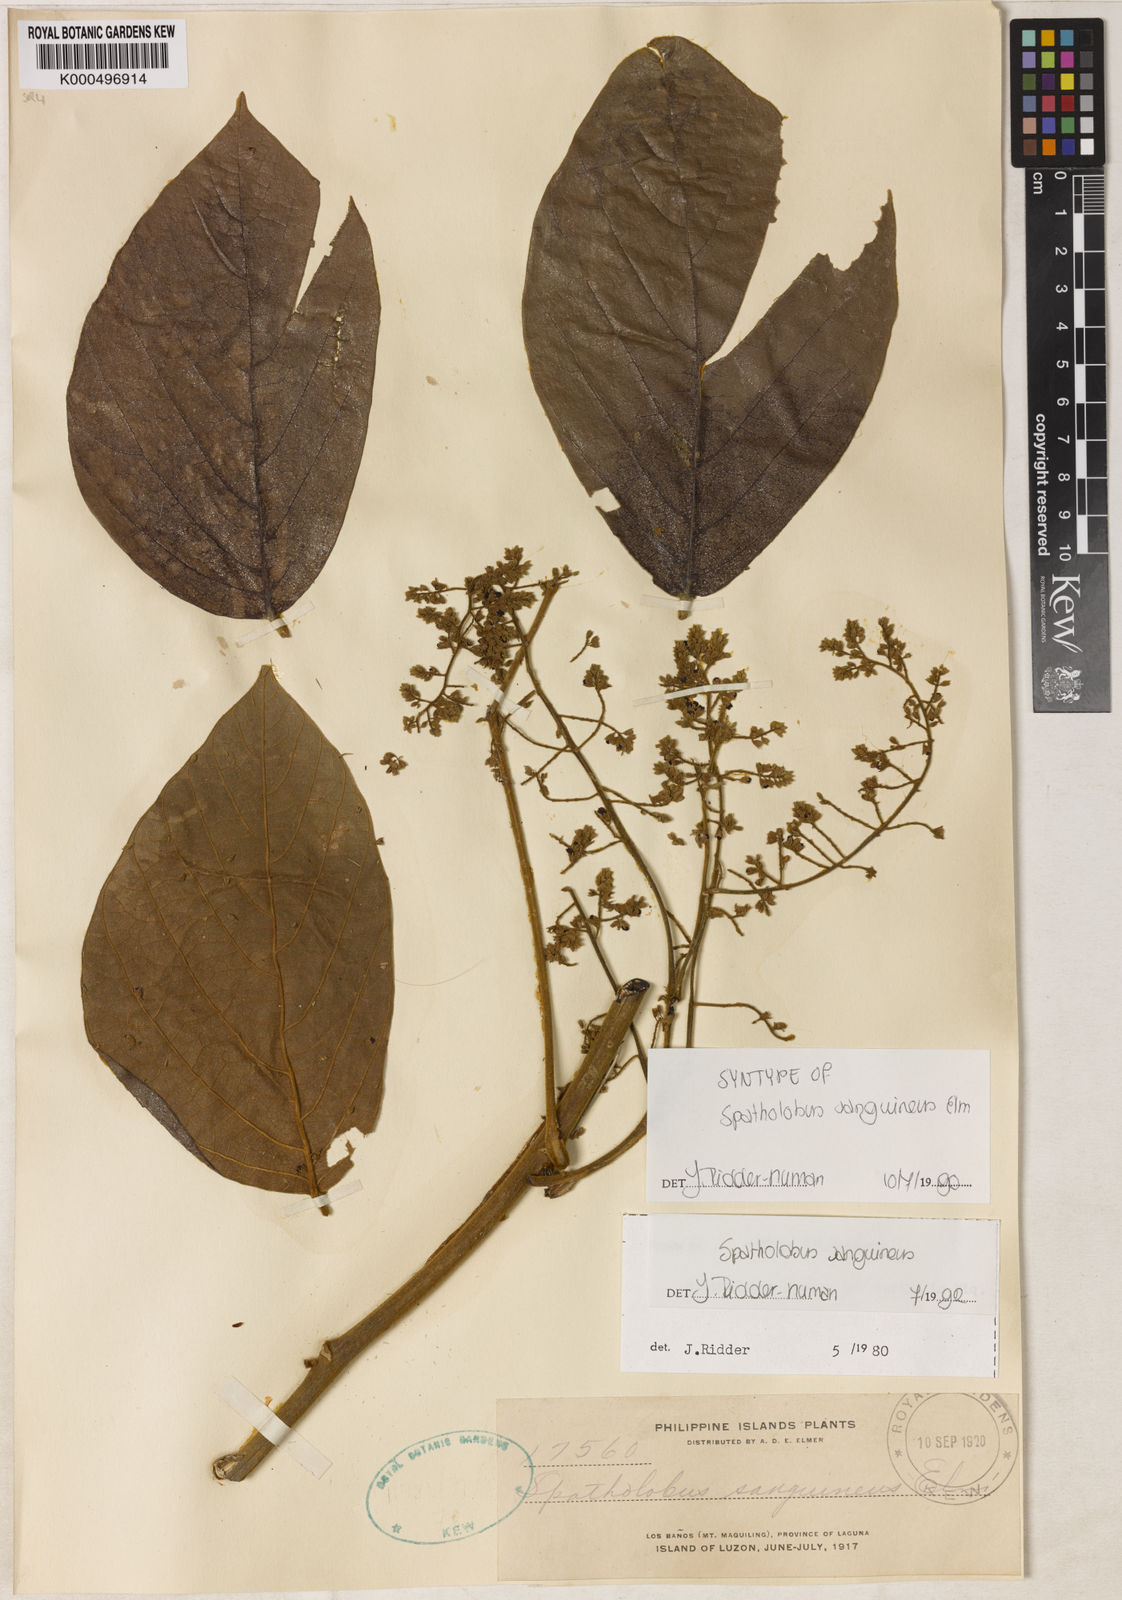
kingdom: Plantae
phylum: Tracheophyta
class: Magnoliopsida
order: Fabales
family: Fabaceae
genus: Spatholobus
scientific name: Spatholobus sanguineus
